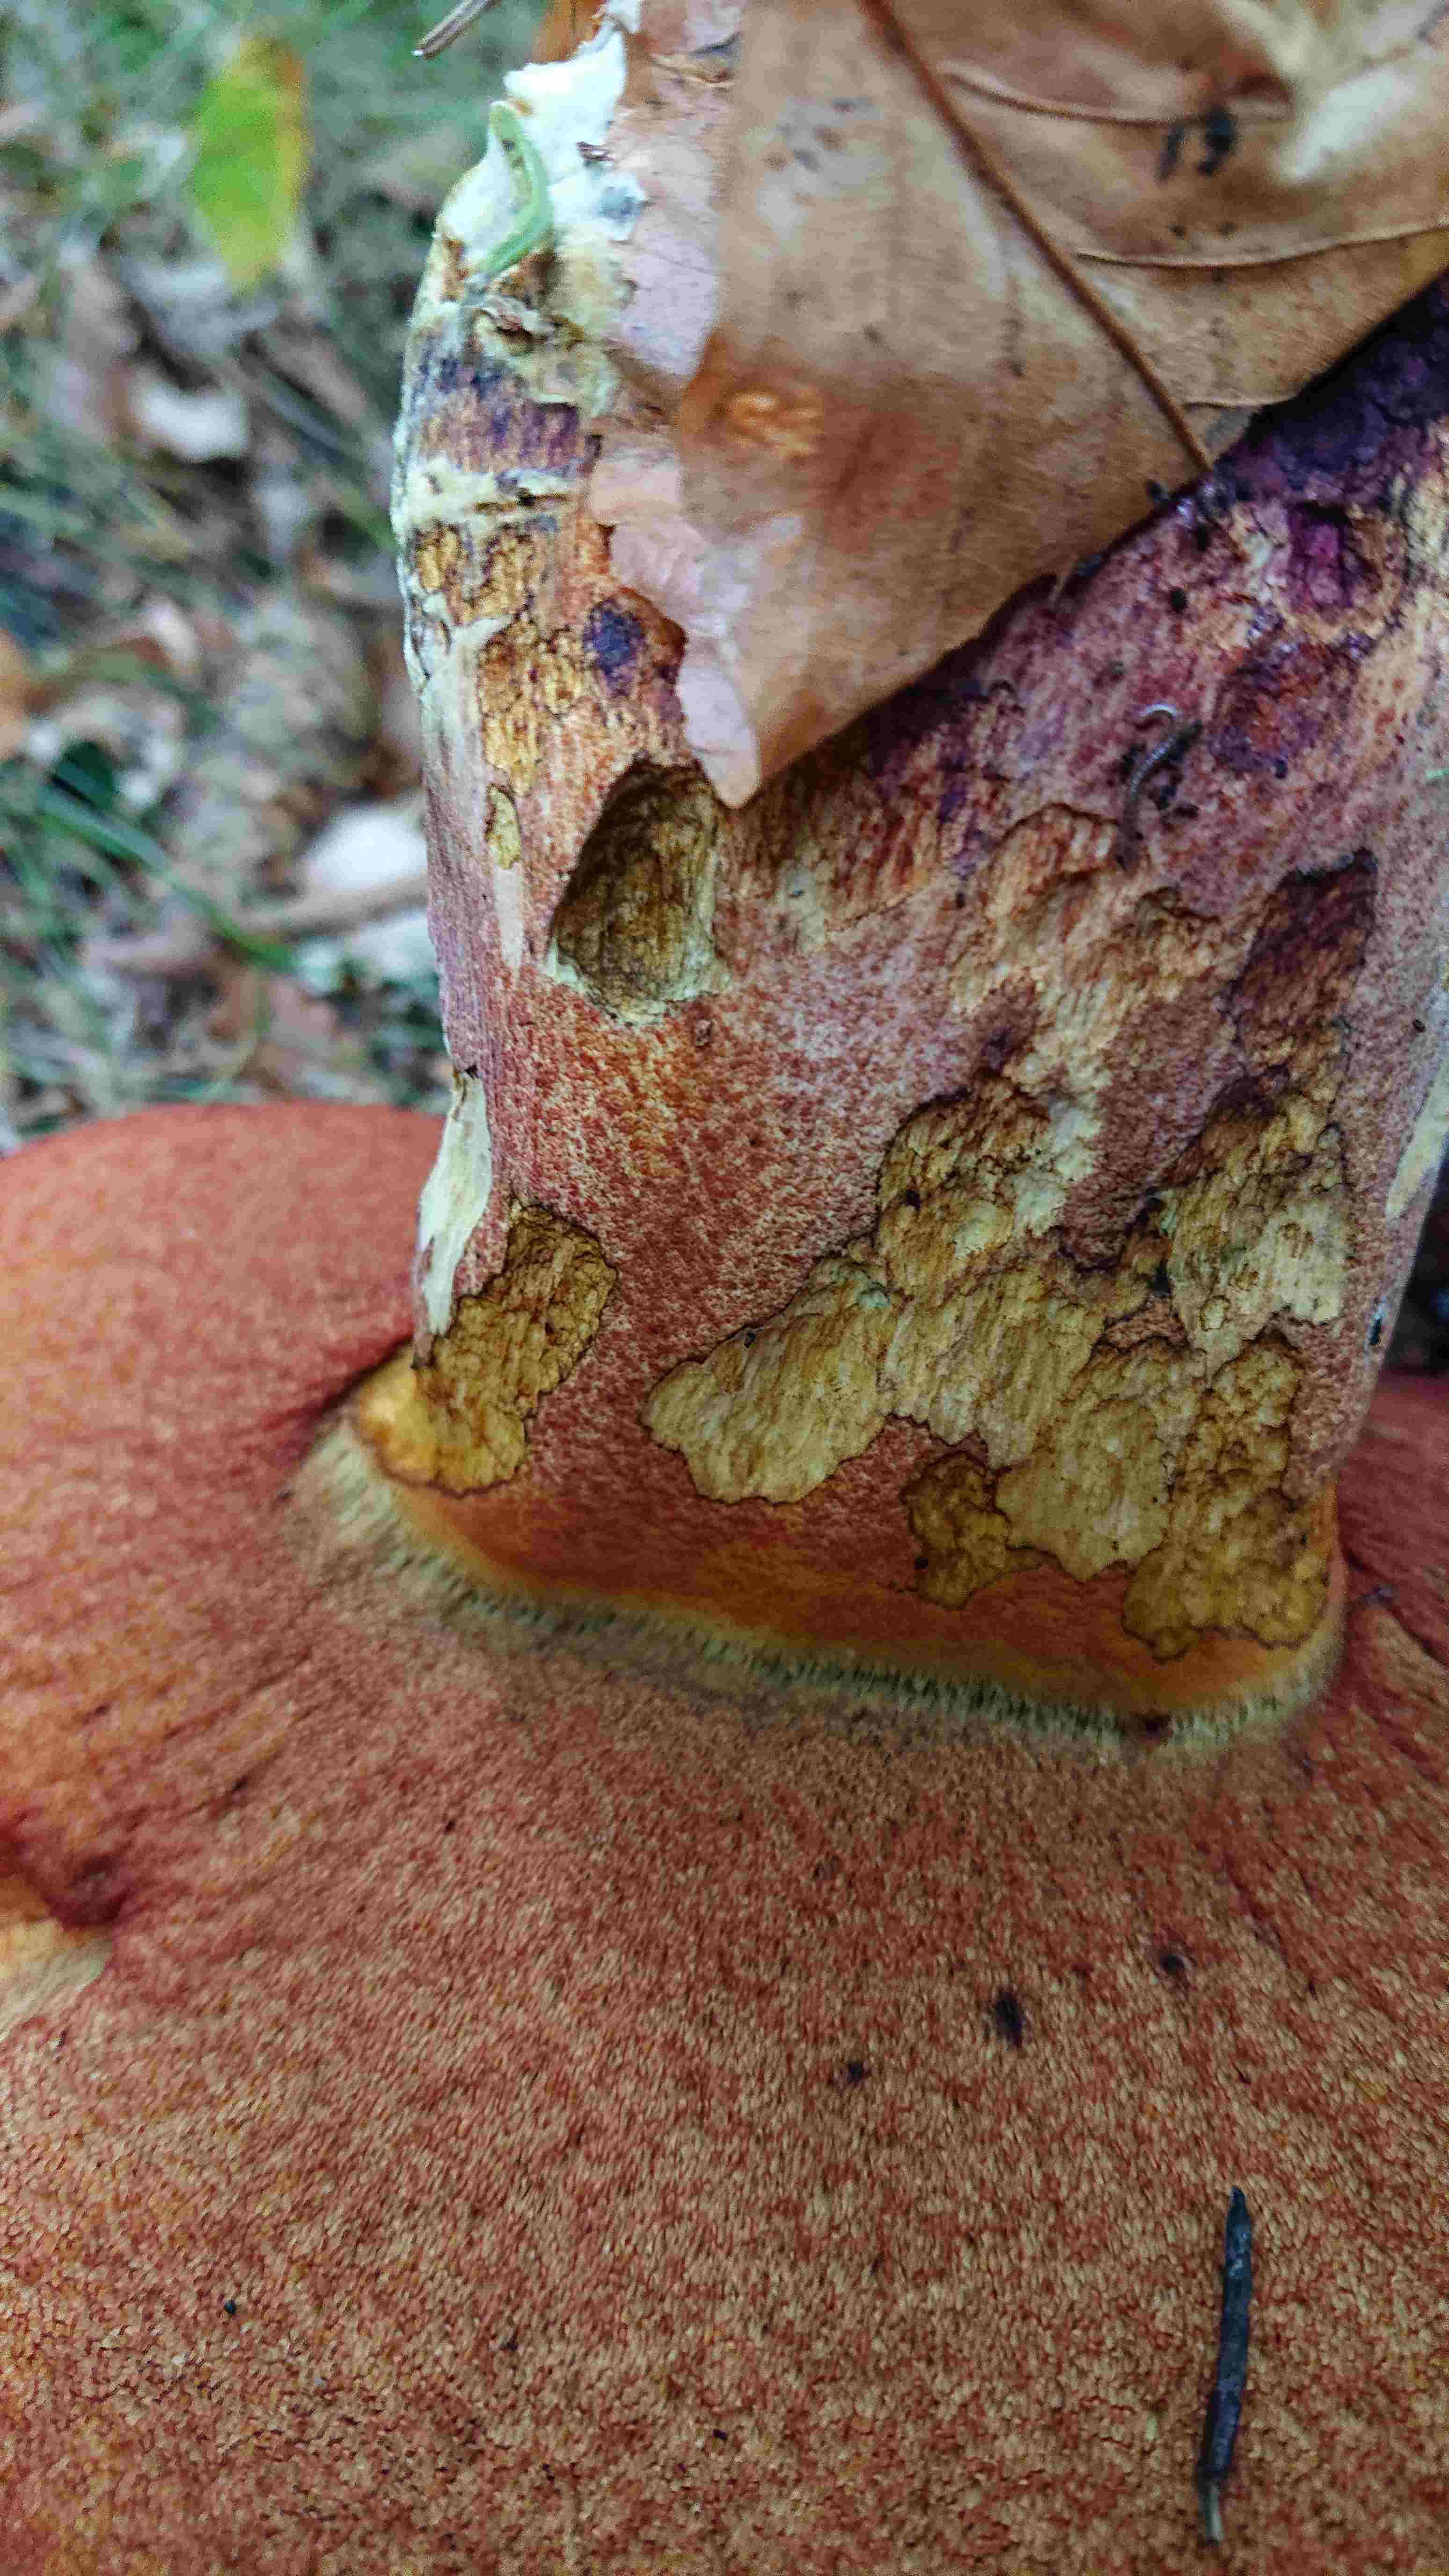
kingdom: Fungi
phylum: Basidiomycota
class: Agaricomycetes
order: Boletales
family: Boletaceae
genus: Neoboletus
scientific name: Neoboletus erythropus
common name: punktstokket indigorørhat
